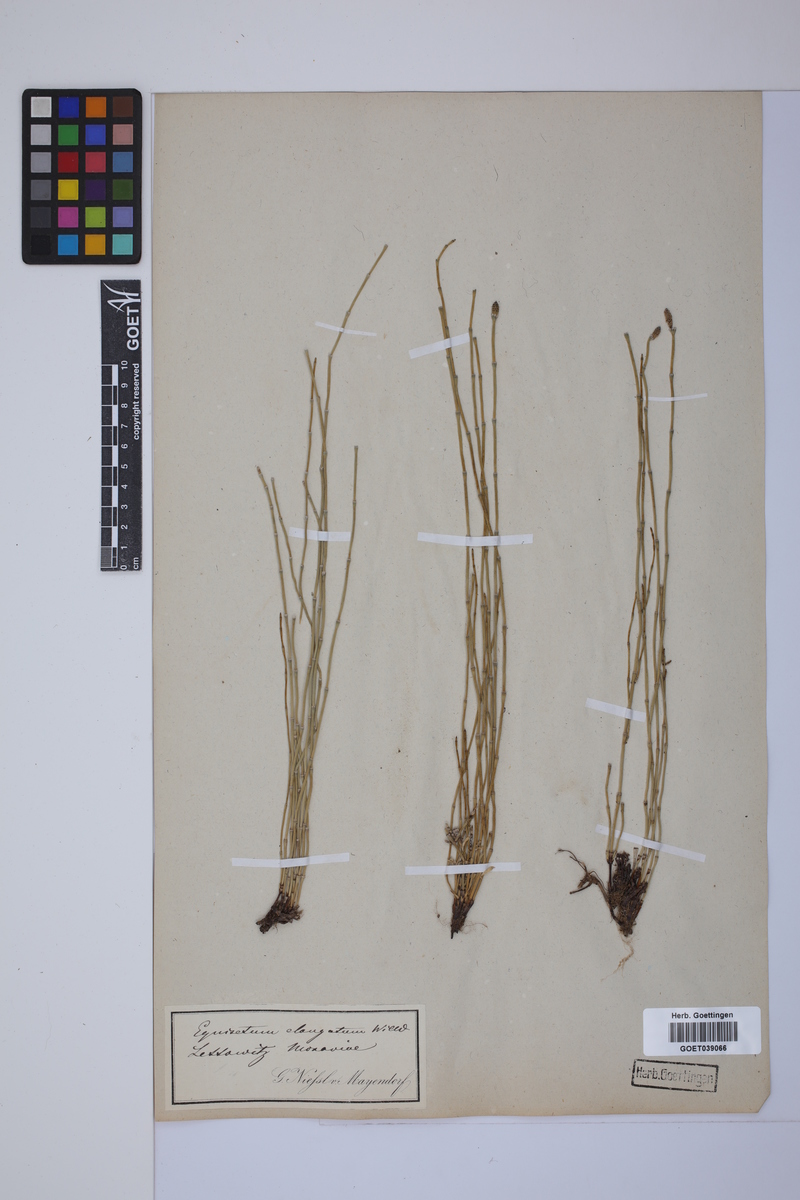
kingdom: Plantae
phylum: Tracheophyta
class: Polypodiopsida
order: Equisetales
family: Equisetaceae
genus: Equisetum
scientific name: Equisetum giganteum
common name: Giant horsetail
